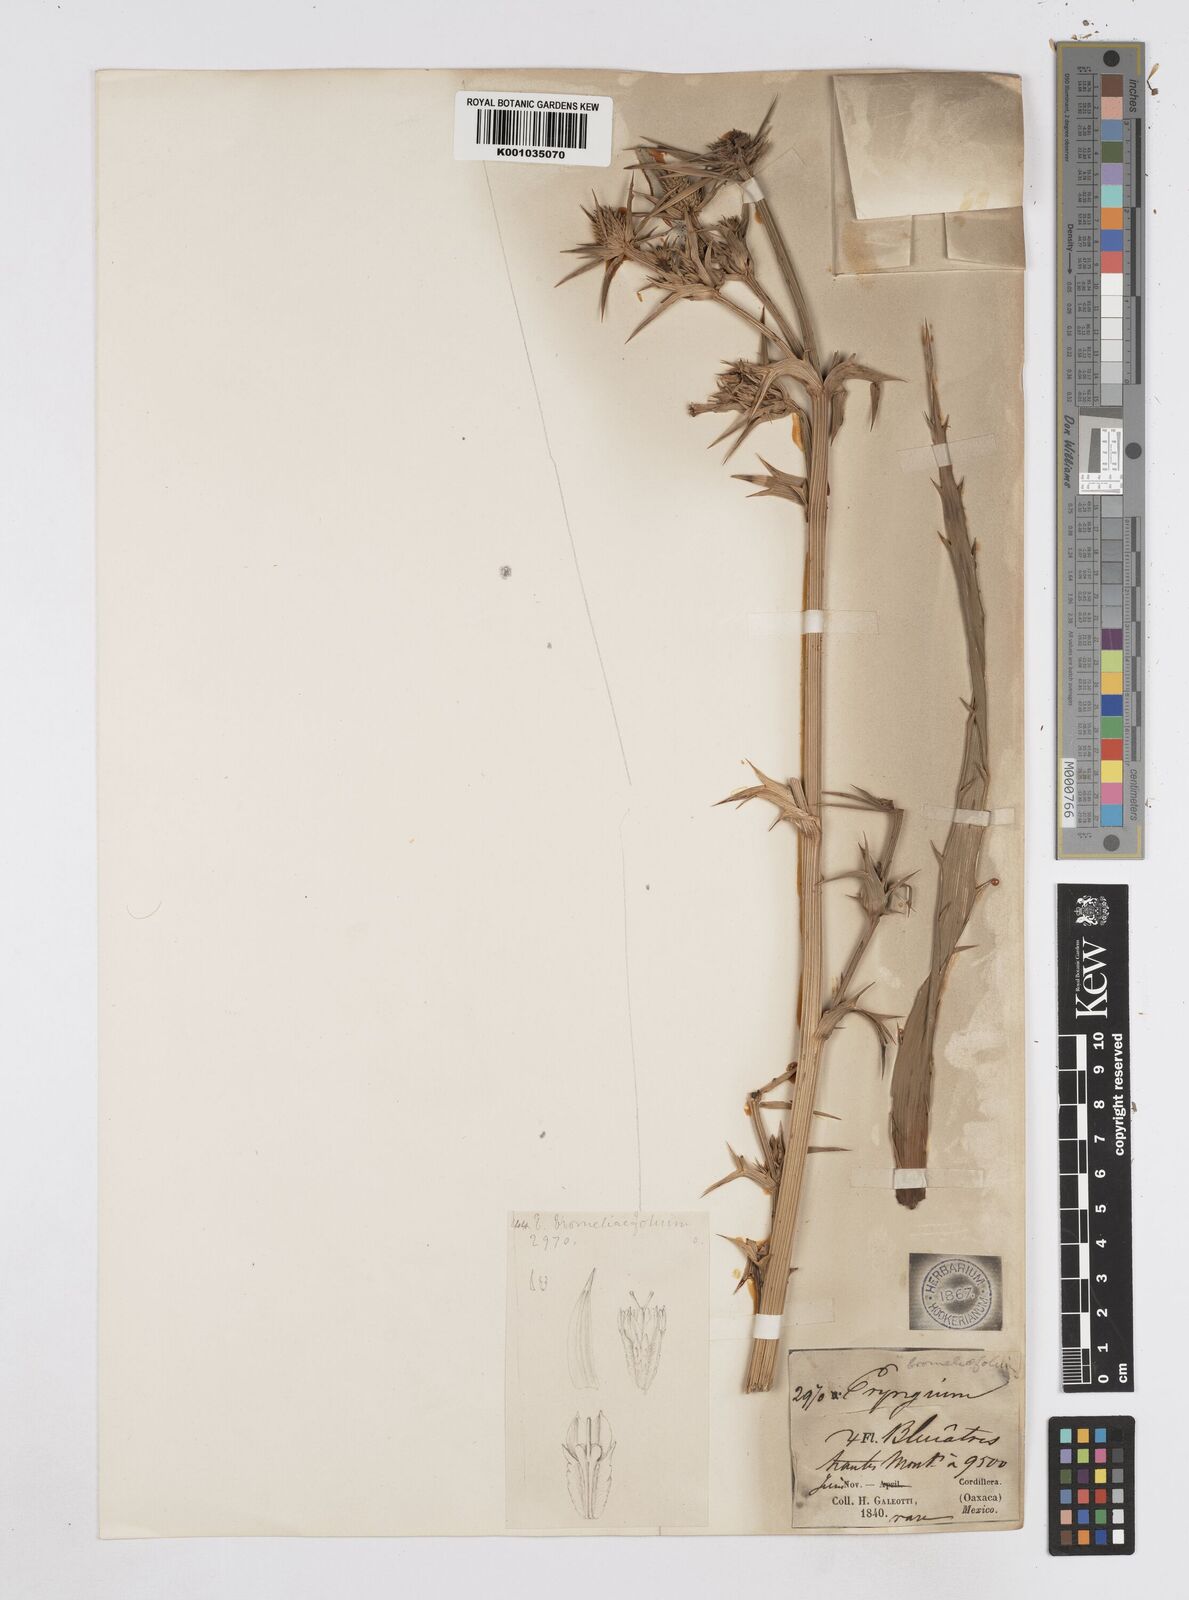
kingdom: Plantae
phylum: Tracheophyta
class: Magnoliopsida
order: Apiales
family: Apiaceae
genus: Eryngium
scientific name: Eryngium monocephalum
